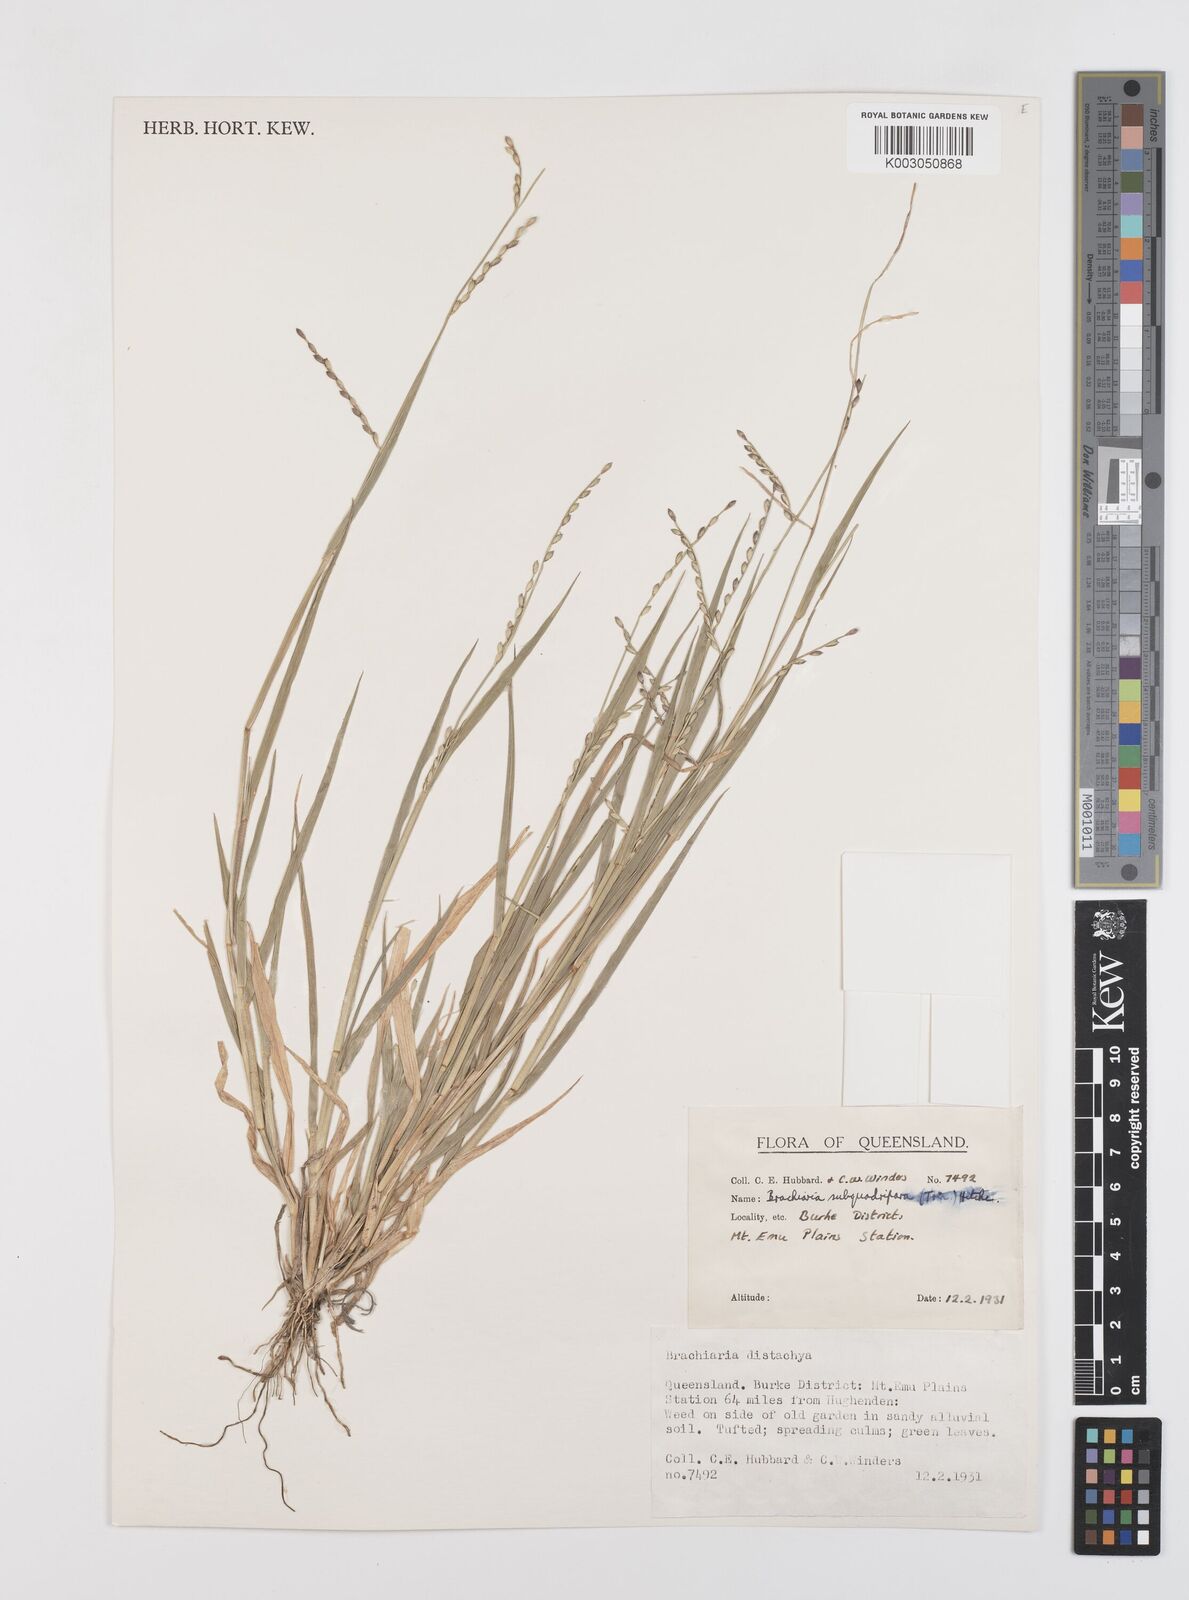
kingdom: Plantae
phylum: Tracheophyta
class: Liliopsida
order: Poales
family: Poaceae
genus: Urochloa
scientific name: Urochloa subquadripara
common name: Armgrass millet
